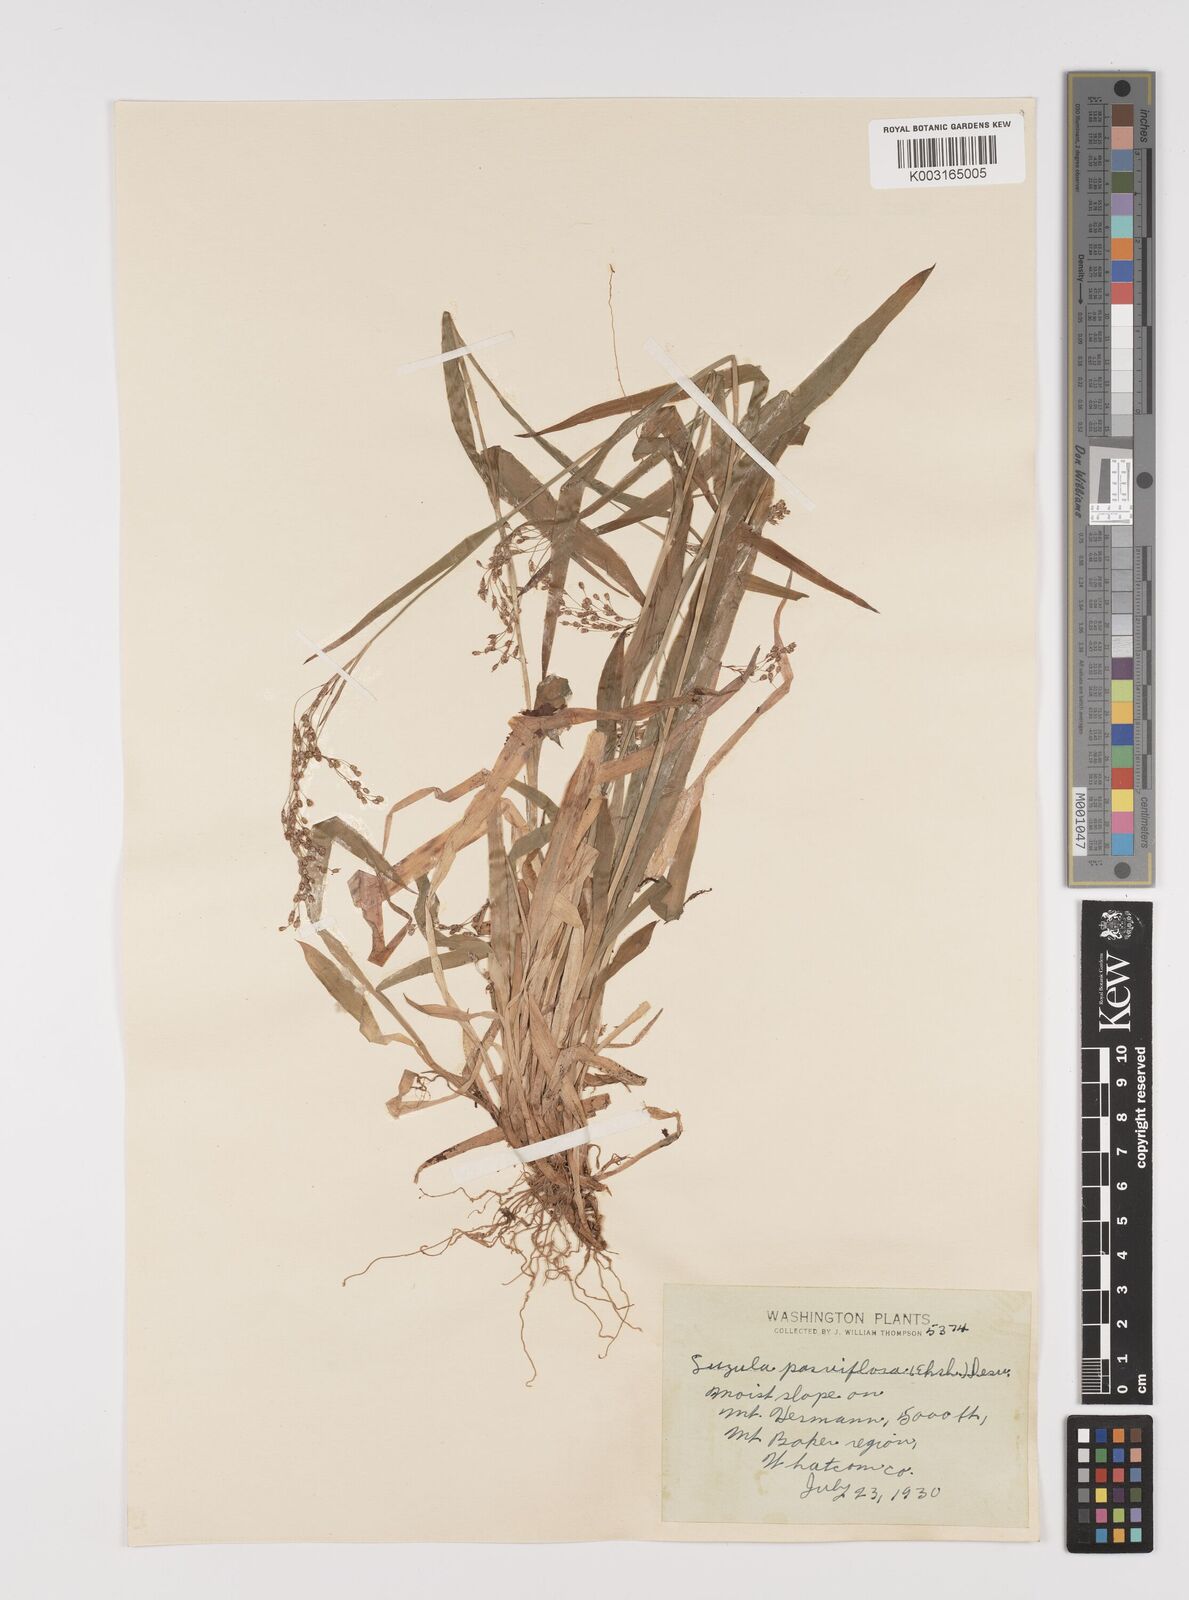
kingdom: Plantae
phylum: Tracheophyta
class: Liliopsida
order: Poales
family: Juncaceae
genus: Luzula
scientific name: Luzula parviflora
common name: Millet woodrush
